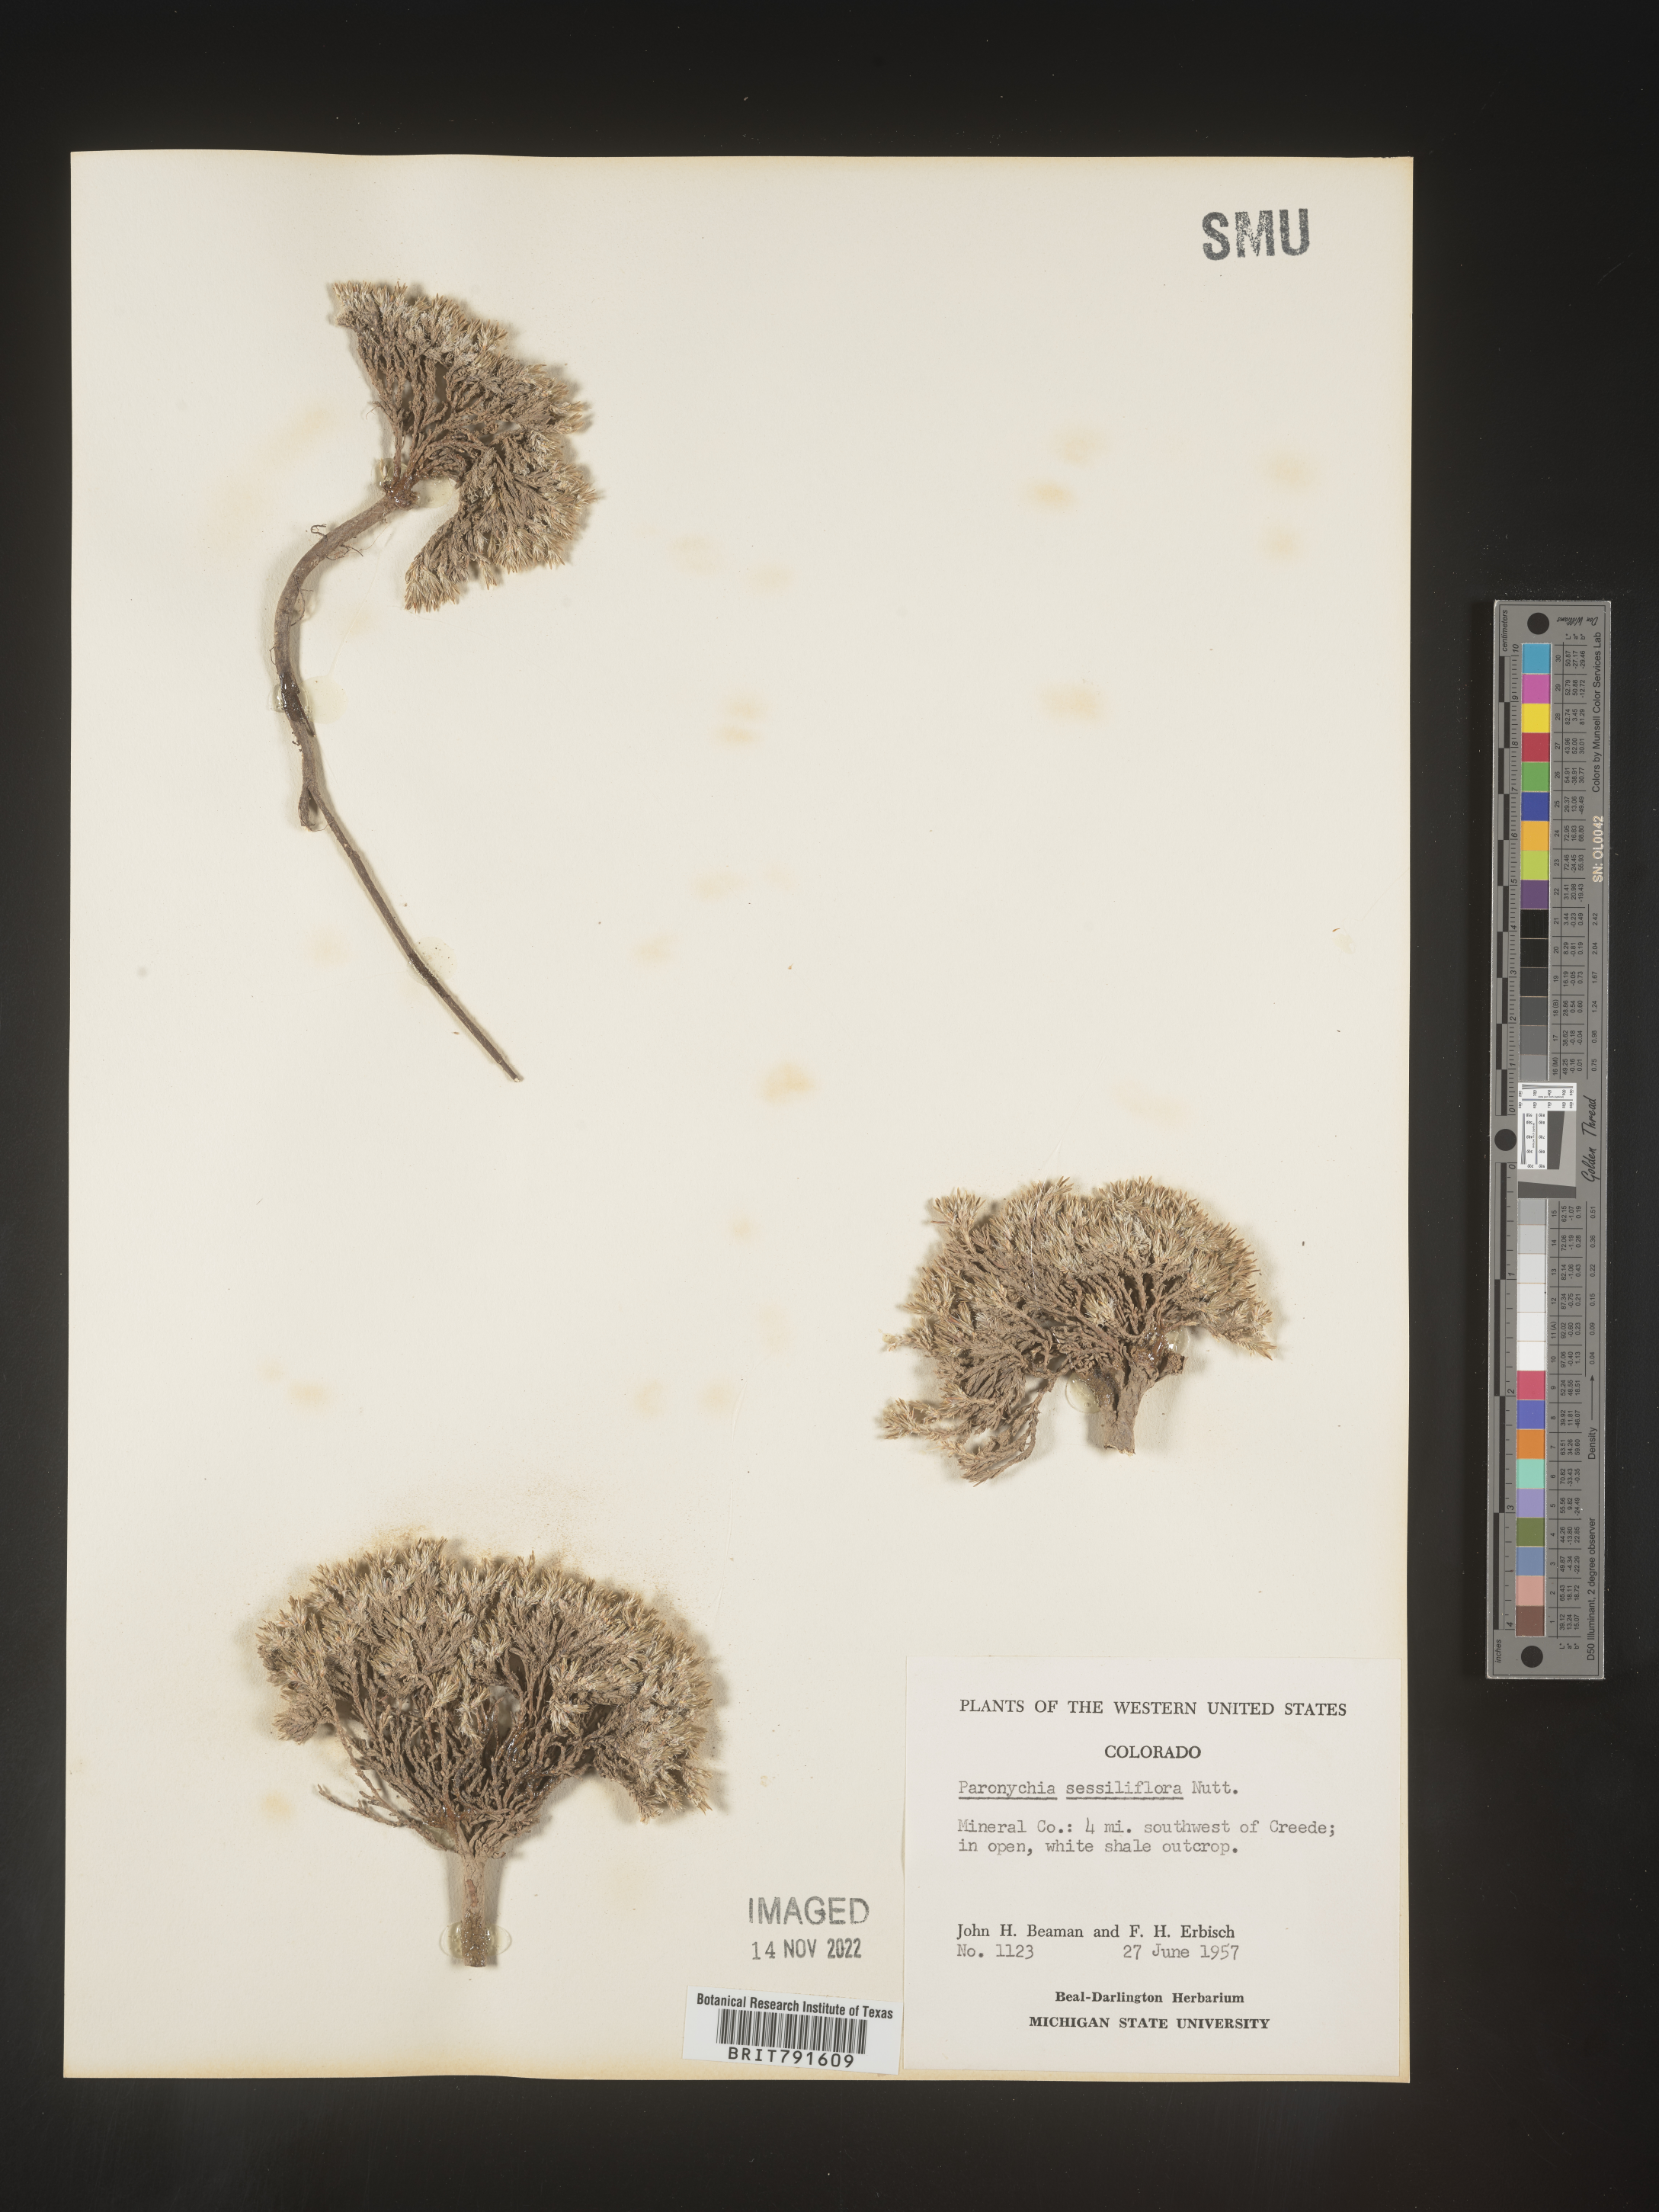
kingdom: Plantae
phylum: Tracheophyta
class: Magnoliopsida
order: Caryophyllales
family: Caryophyllaceae
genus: Paronychia
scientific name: Paronychia sessiliflora
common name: Creeping nailwort
